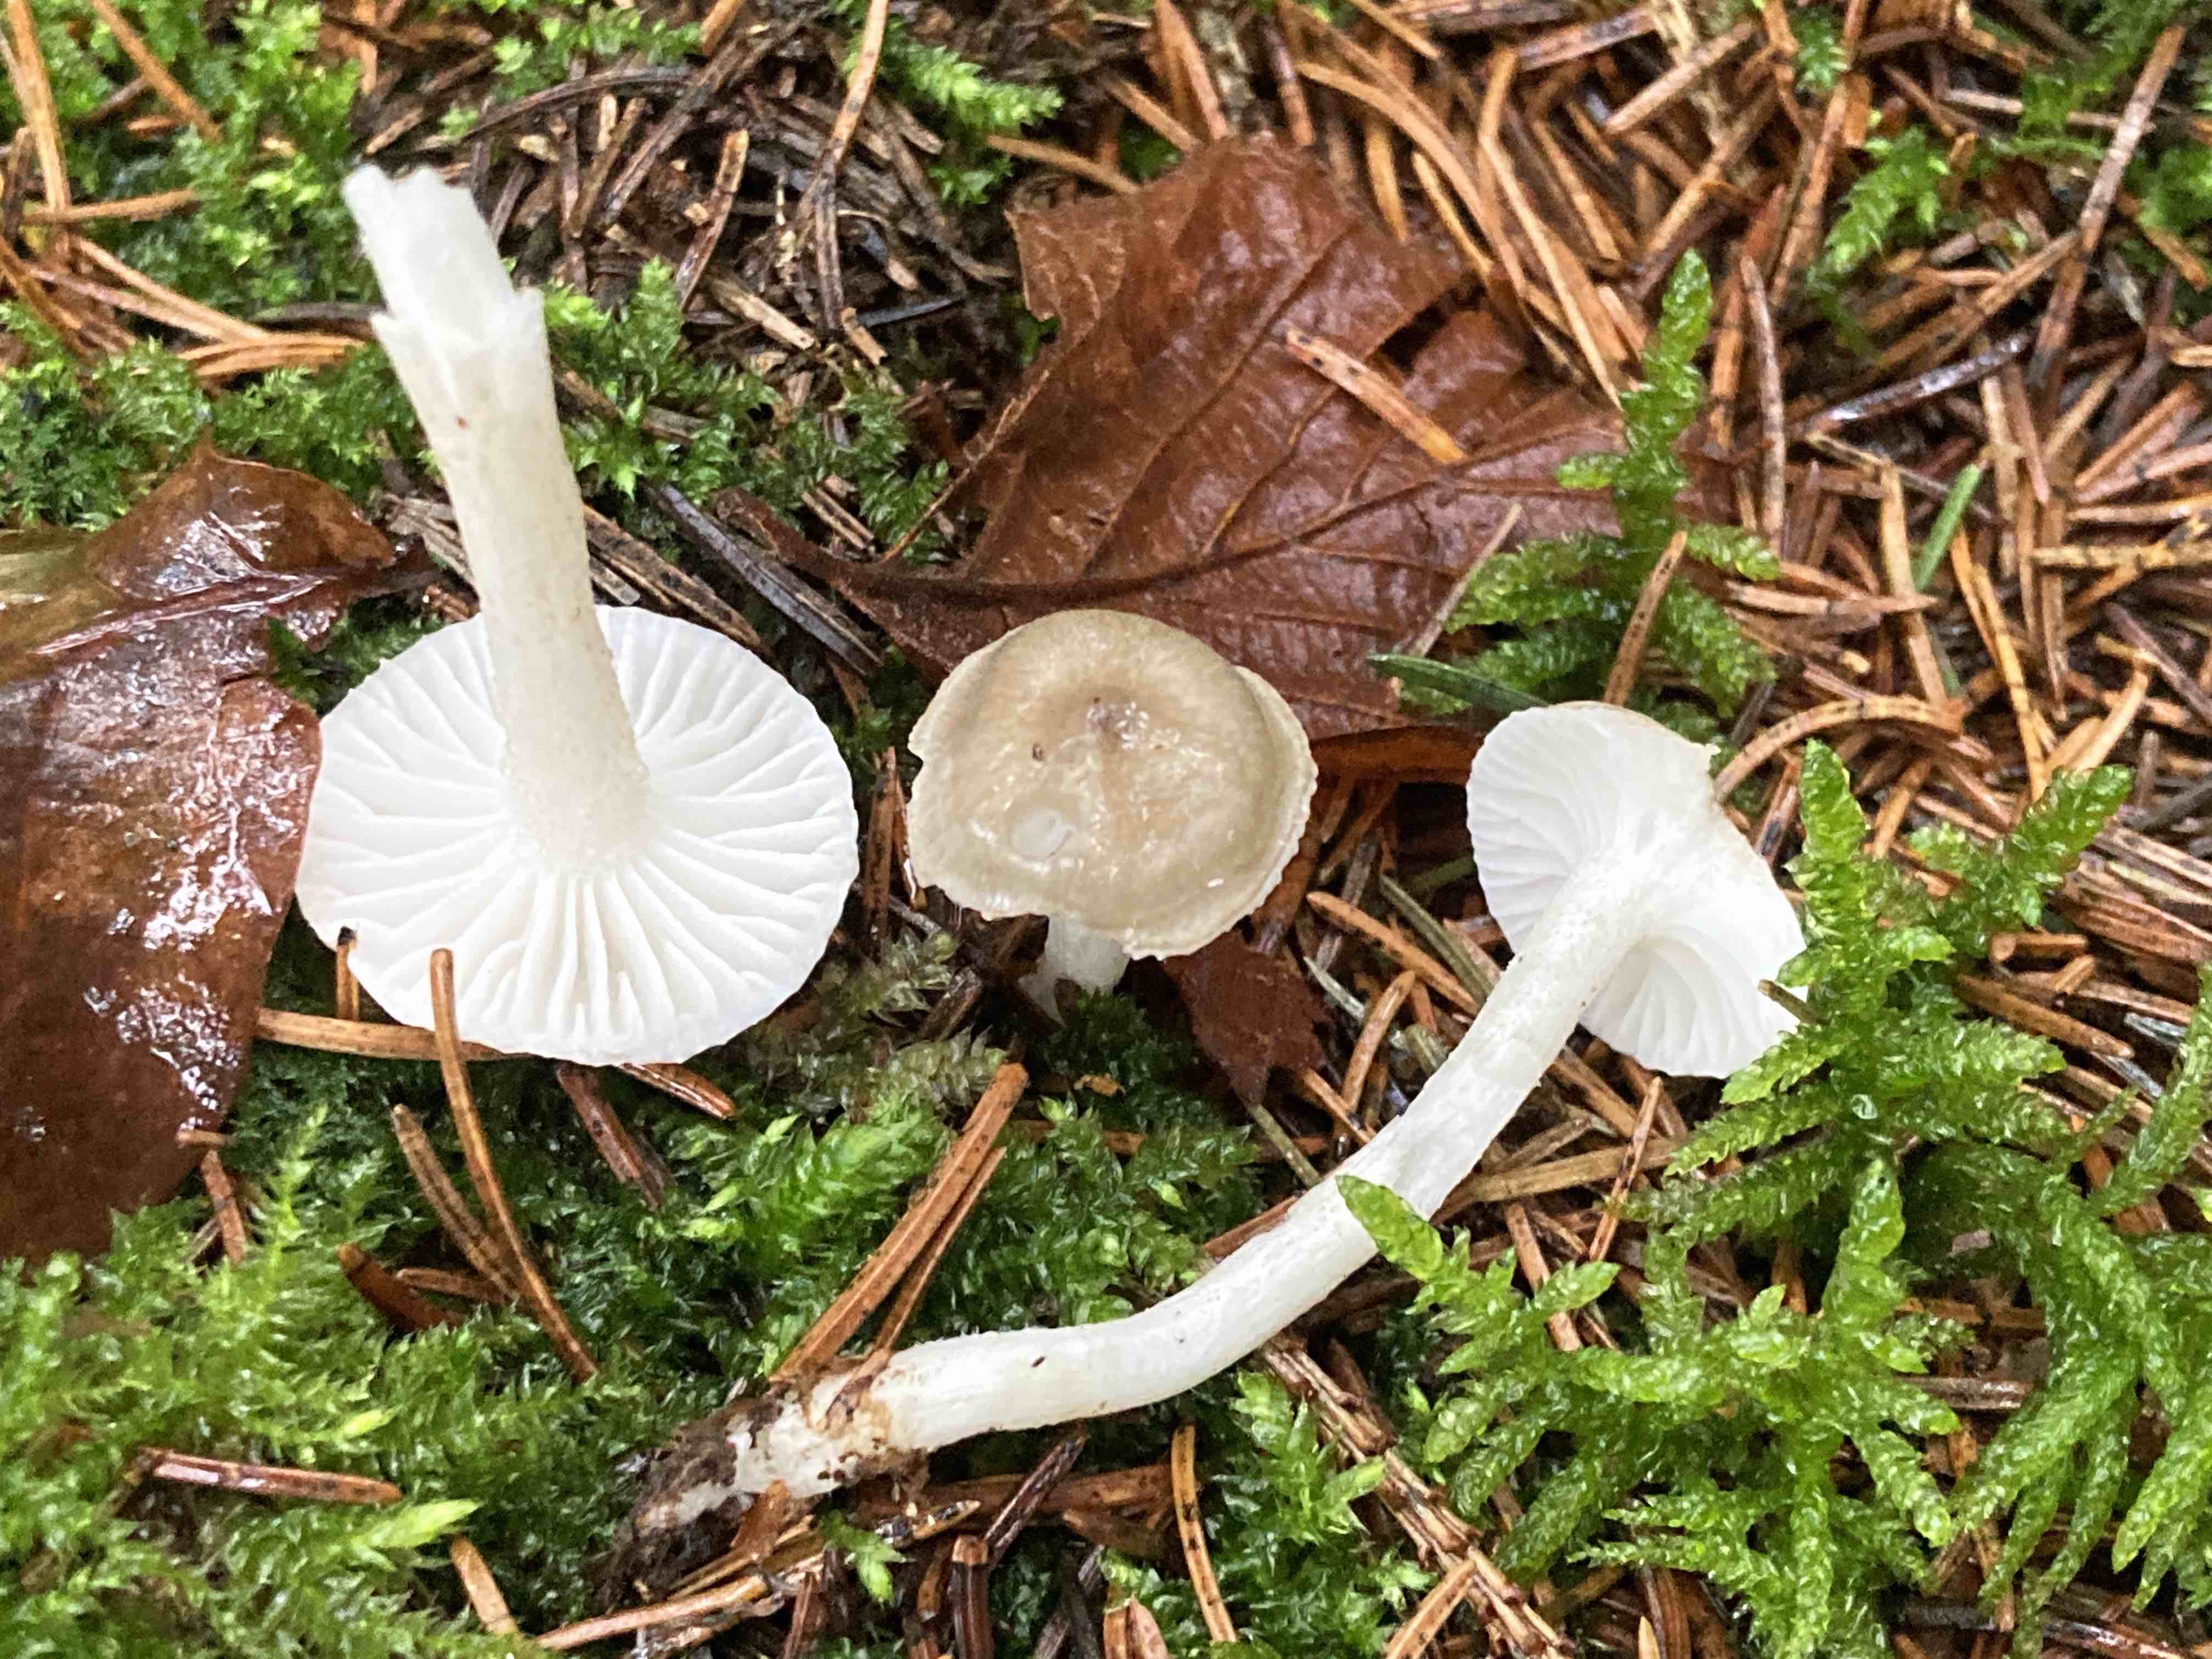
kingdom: Fungi
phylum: Basidiomycota
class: Agaricomycetes
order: Agaricales
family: Hygrophoraceae
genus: Hygrophorus
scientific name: Hygrophorus pustulatus
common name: mørkprikket sneglehat
